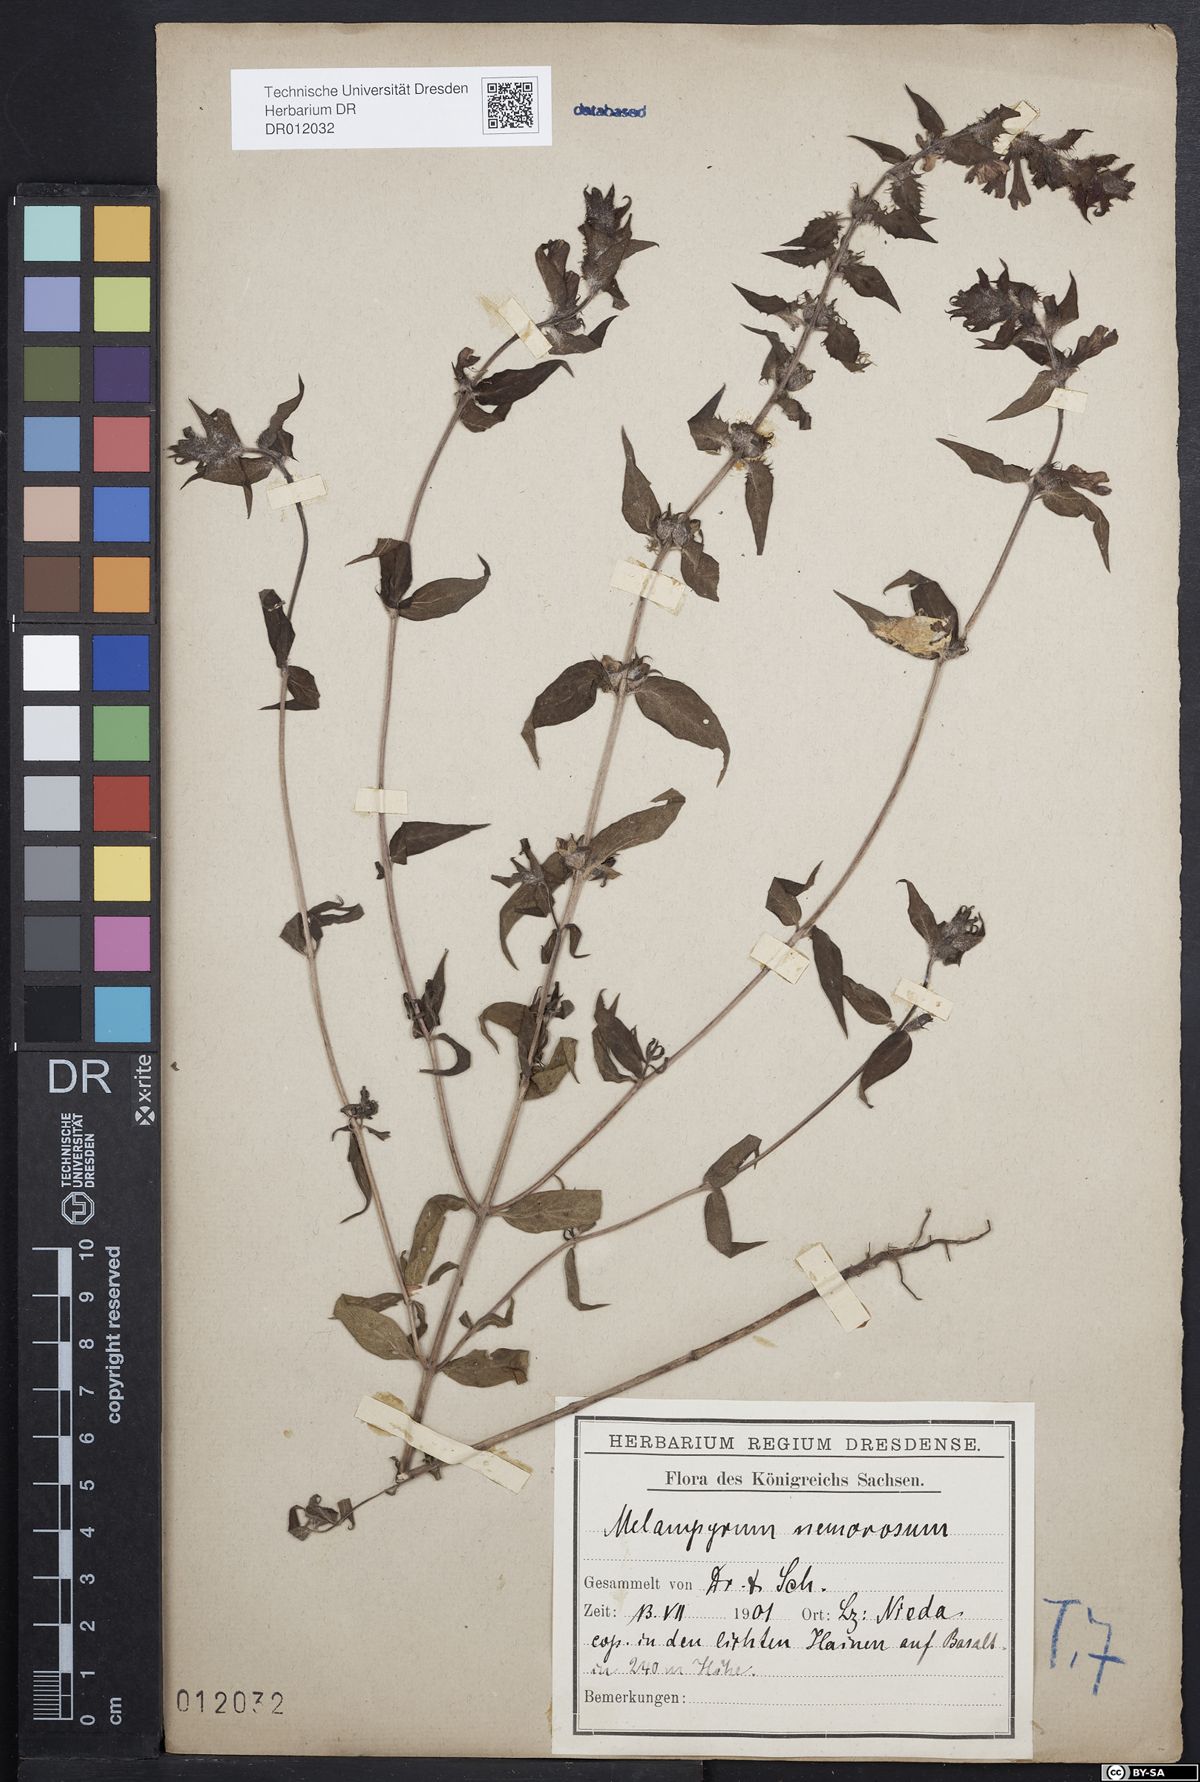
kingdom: Plantae
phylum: Tracheophyta
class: Magnoliopsida
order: Lamiales
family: Orobanchaceae
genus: Melampyrum
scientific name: Melampyrum nemorosum
